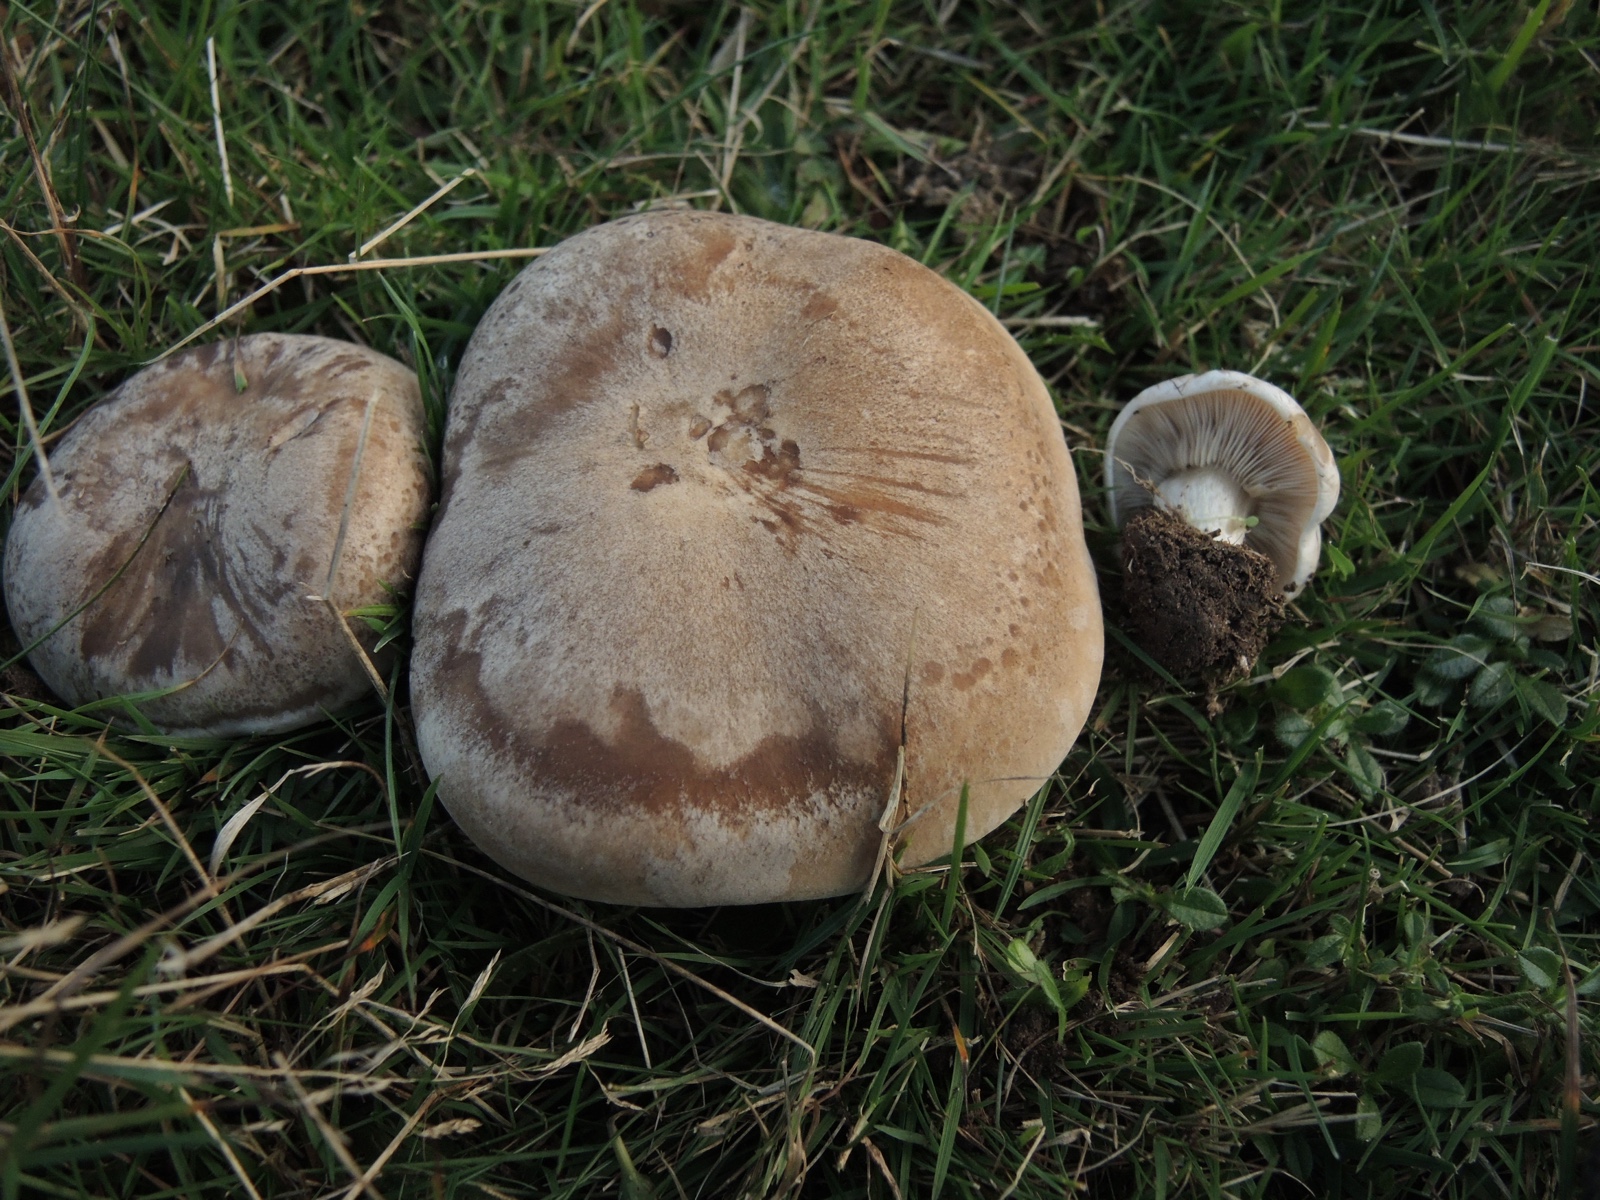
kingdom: Fungi
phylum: Basidiomycota
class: Agaricomycetes
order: Agaricales
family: Tricholomataceae
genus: Lepista
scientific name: Lepista panaeolus
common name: marmoreret hekseringshat
